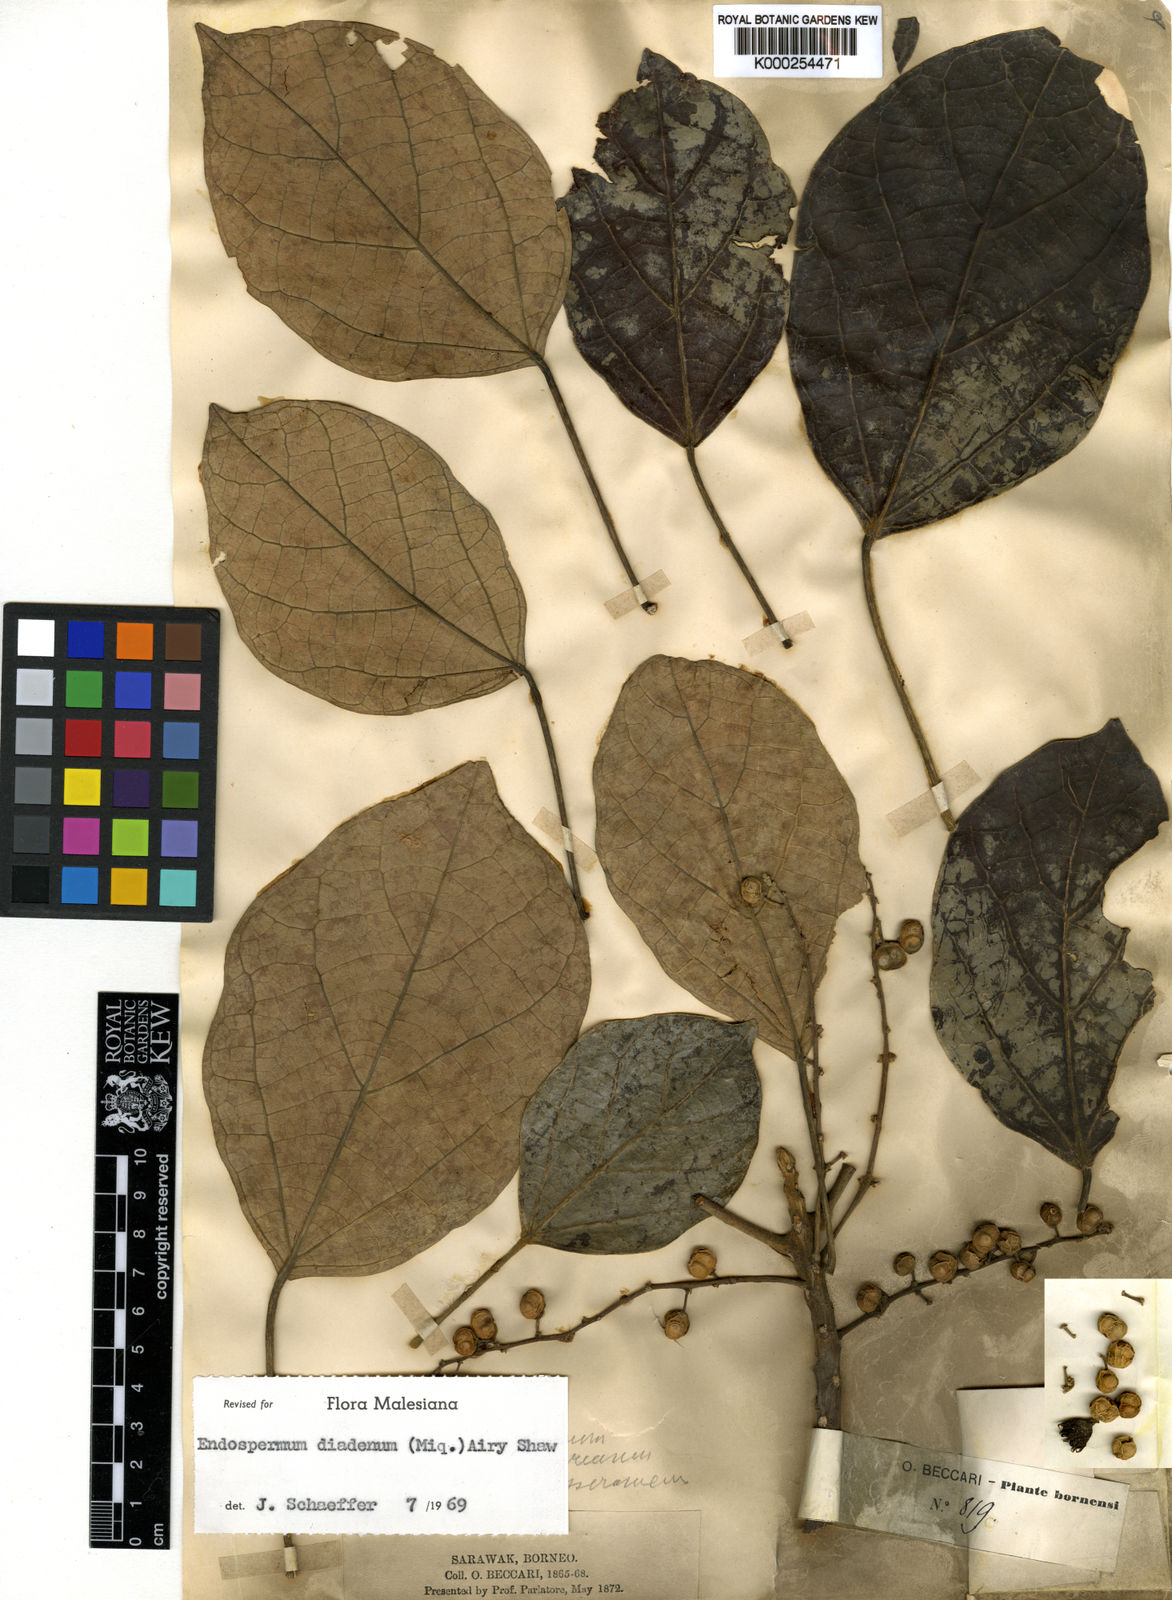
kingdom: Plantae
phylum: Tracheophyta
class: Magnoliopsida
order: Malpighiales
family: Euphorbiaceae
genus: Endospermum
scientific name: Endospermum diadenum
